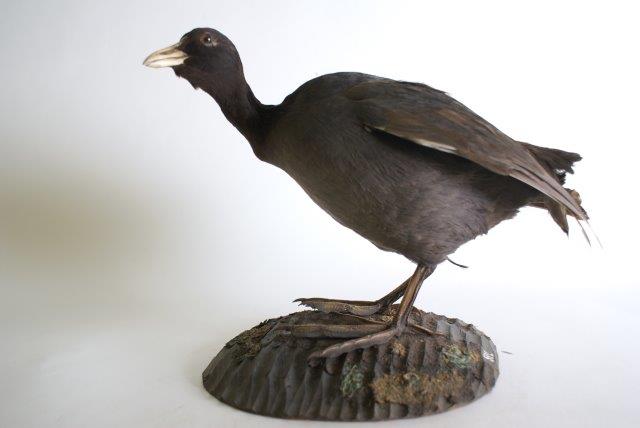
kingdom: Animalia
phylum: Chordata
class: Aves
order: Gruiformes
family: Rallidae
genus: Fulica
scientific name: Fulica atra
